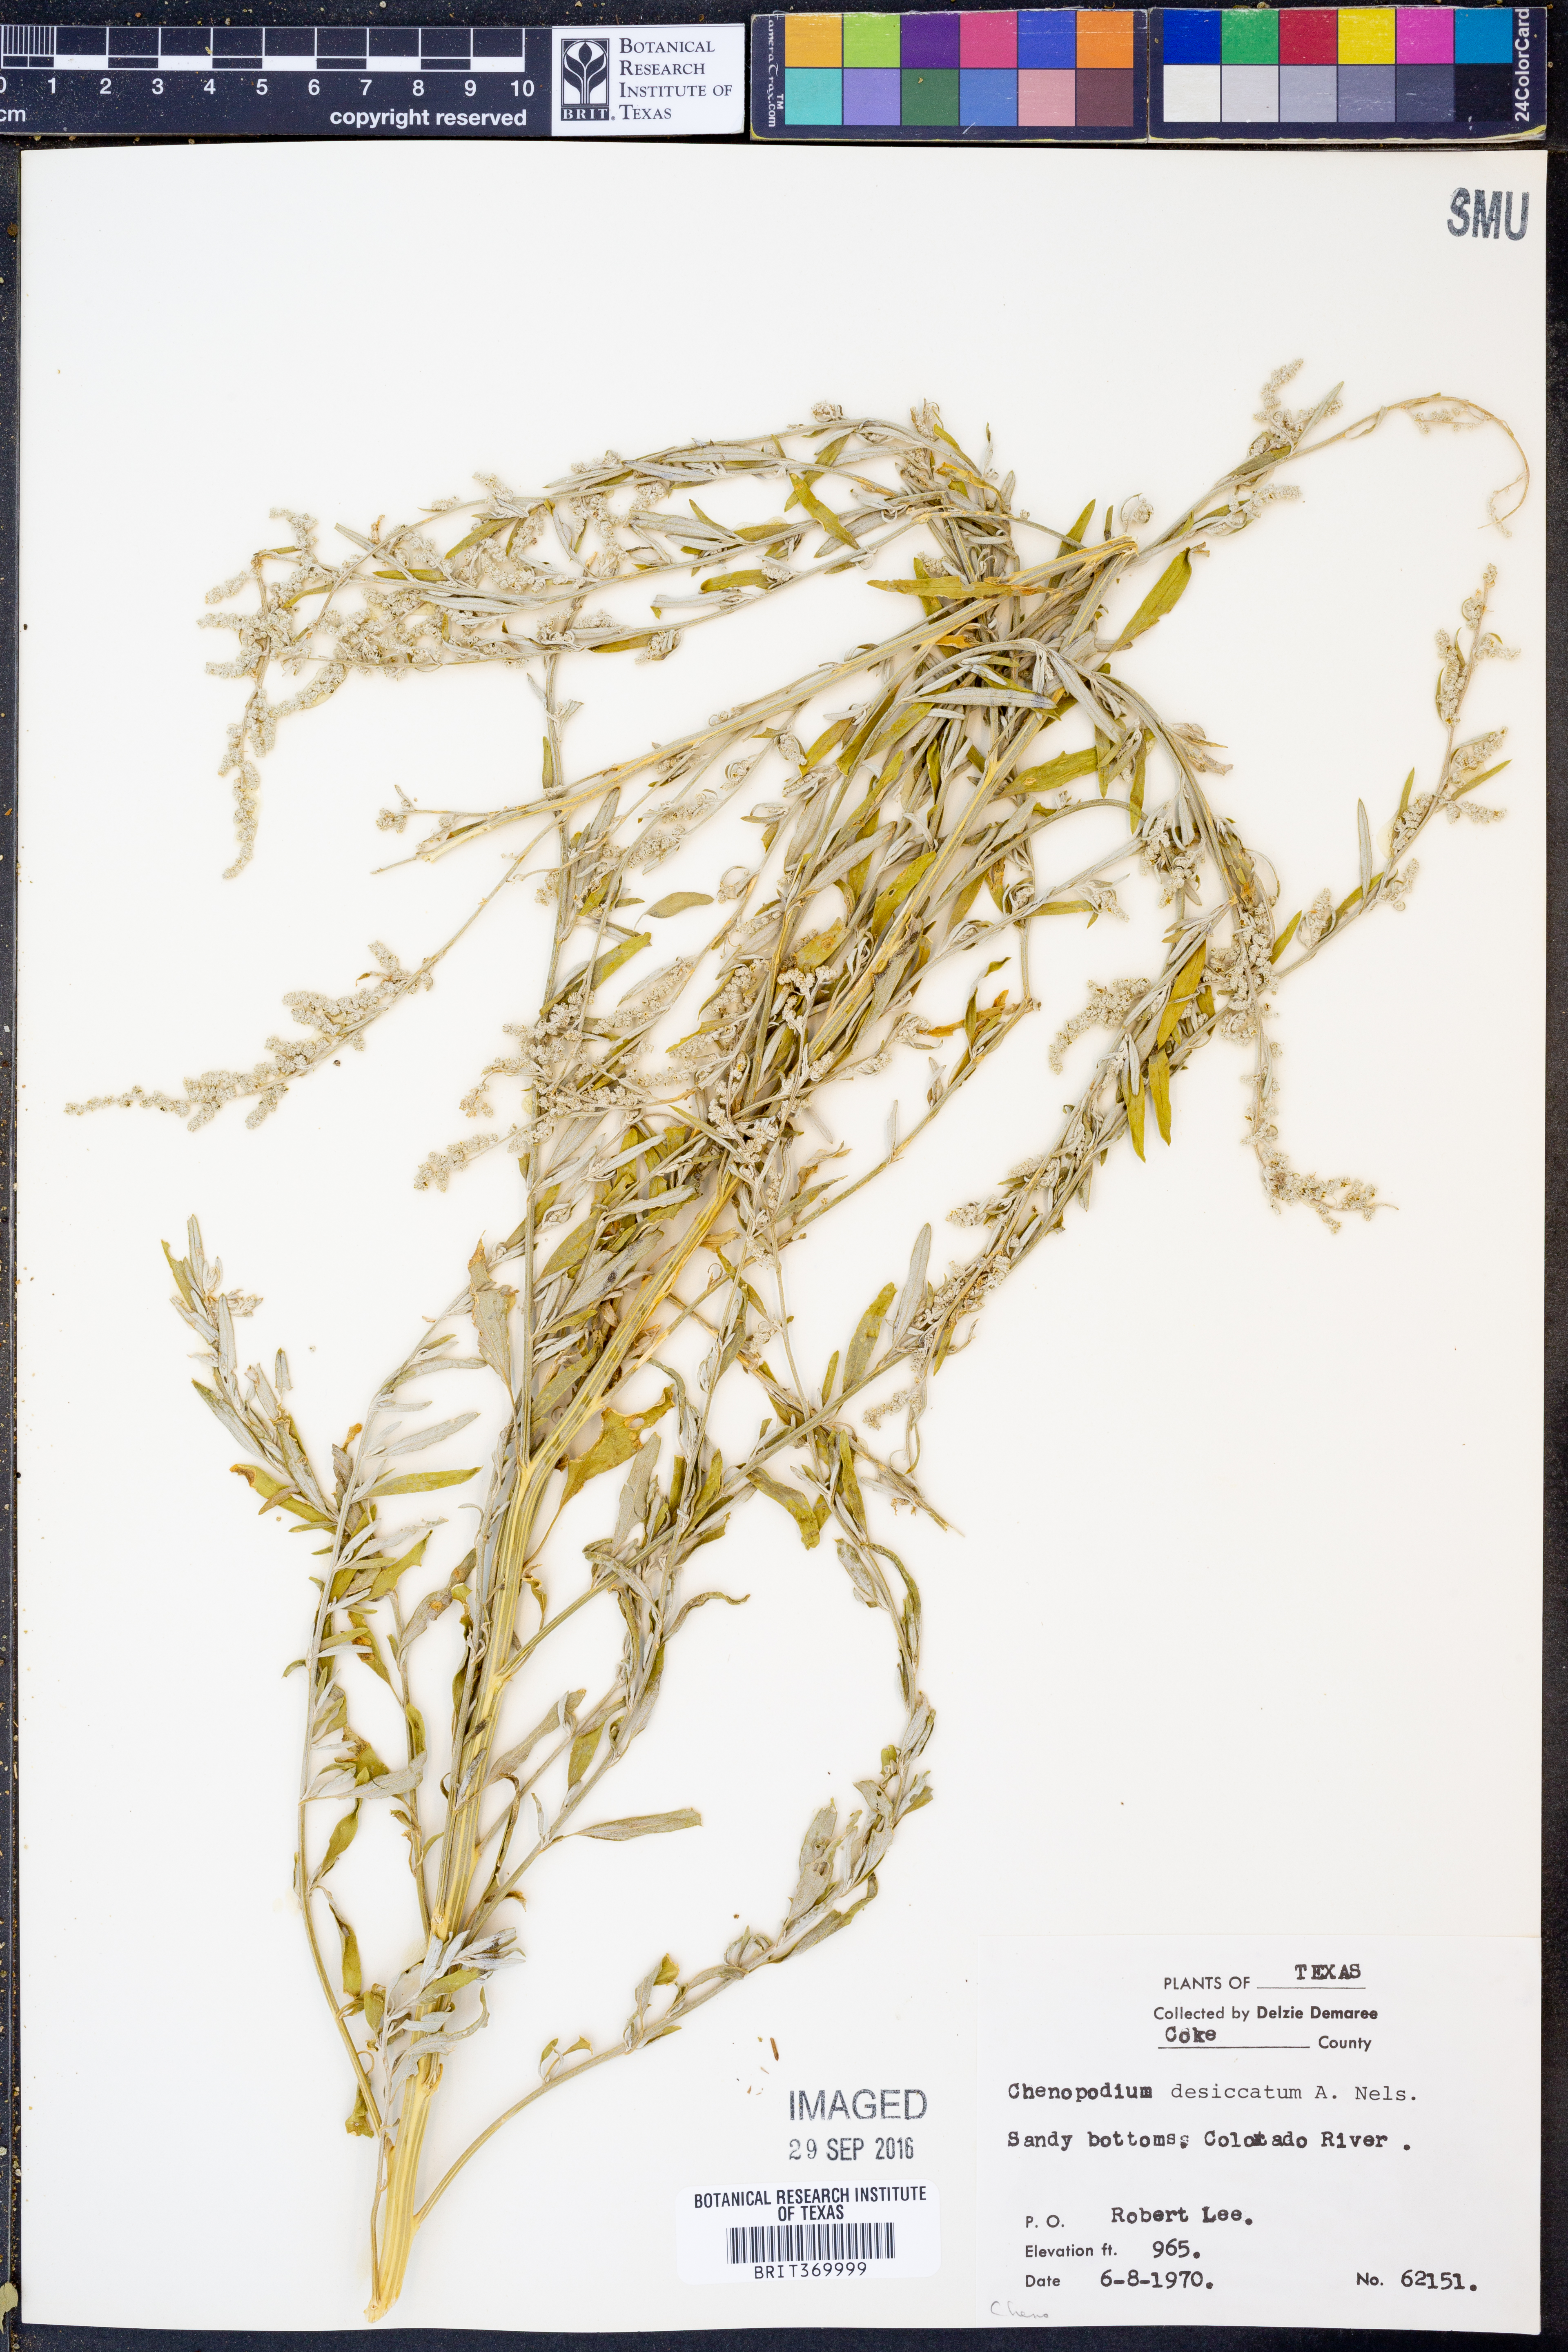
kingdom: Plantae
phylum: Tracheophyta
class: Magnoliopsida
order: Caryophyllales
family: Amaranthaceae
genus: Chenopodium
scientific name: Chenopodium desiccatum
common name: Slimleaf goosefoot
